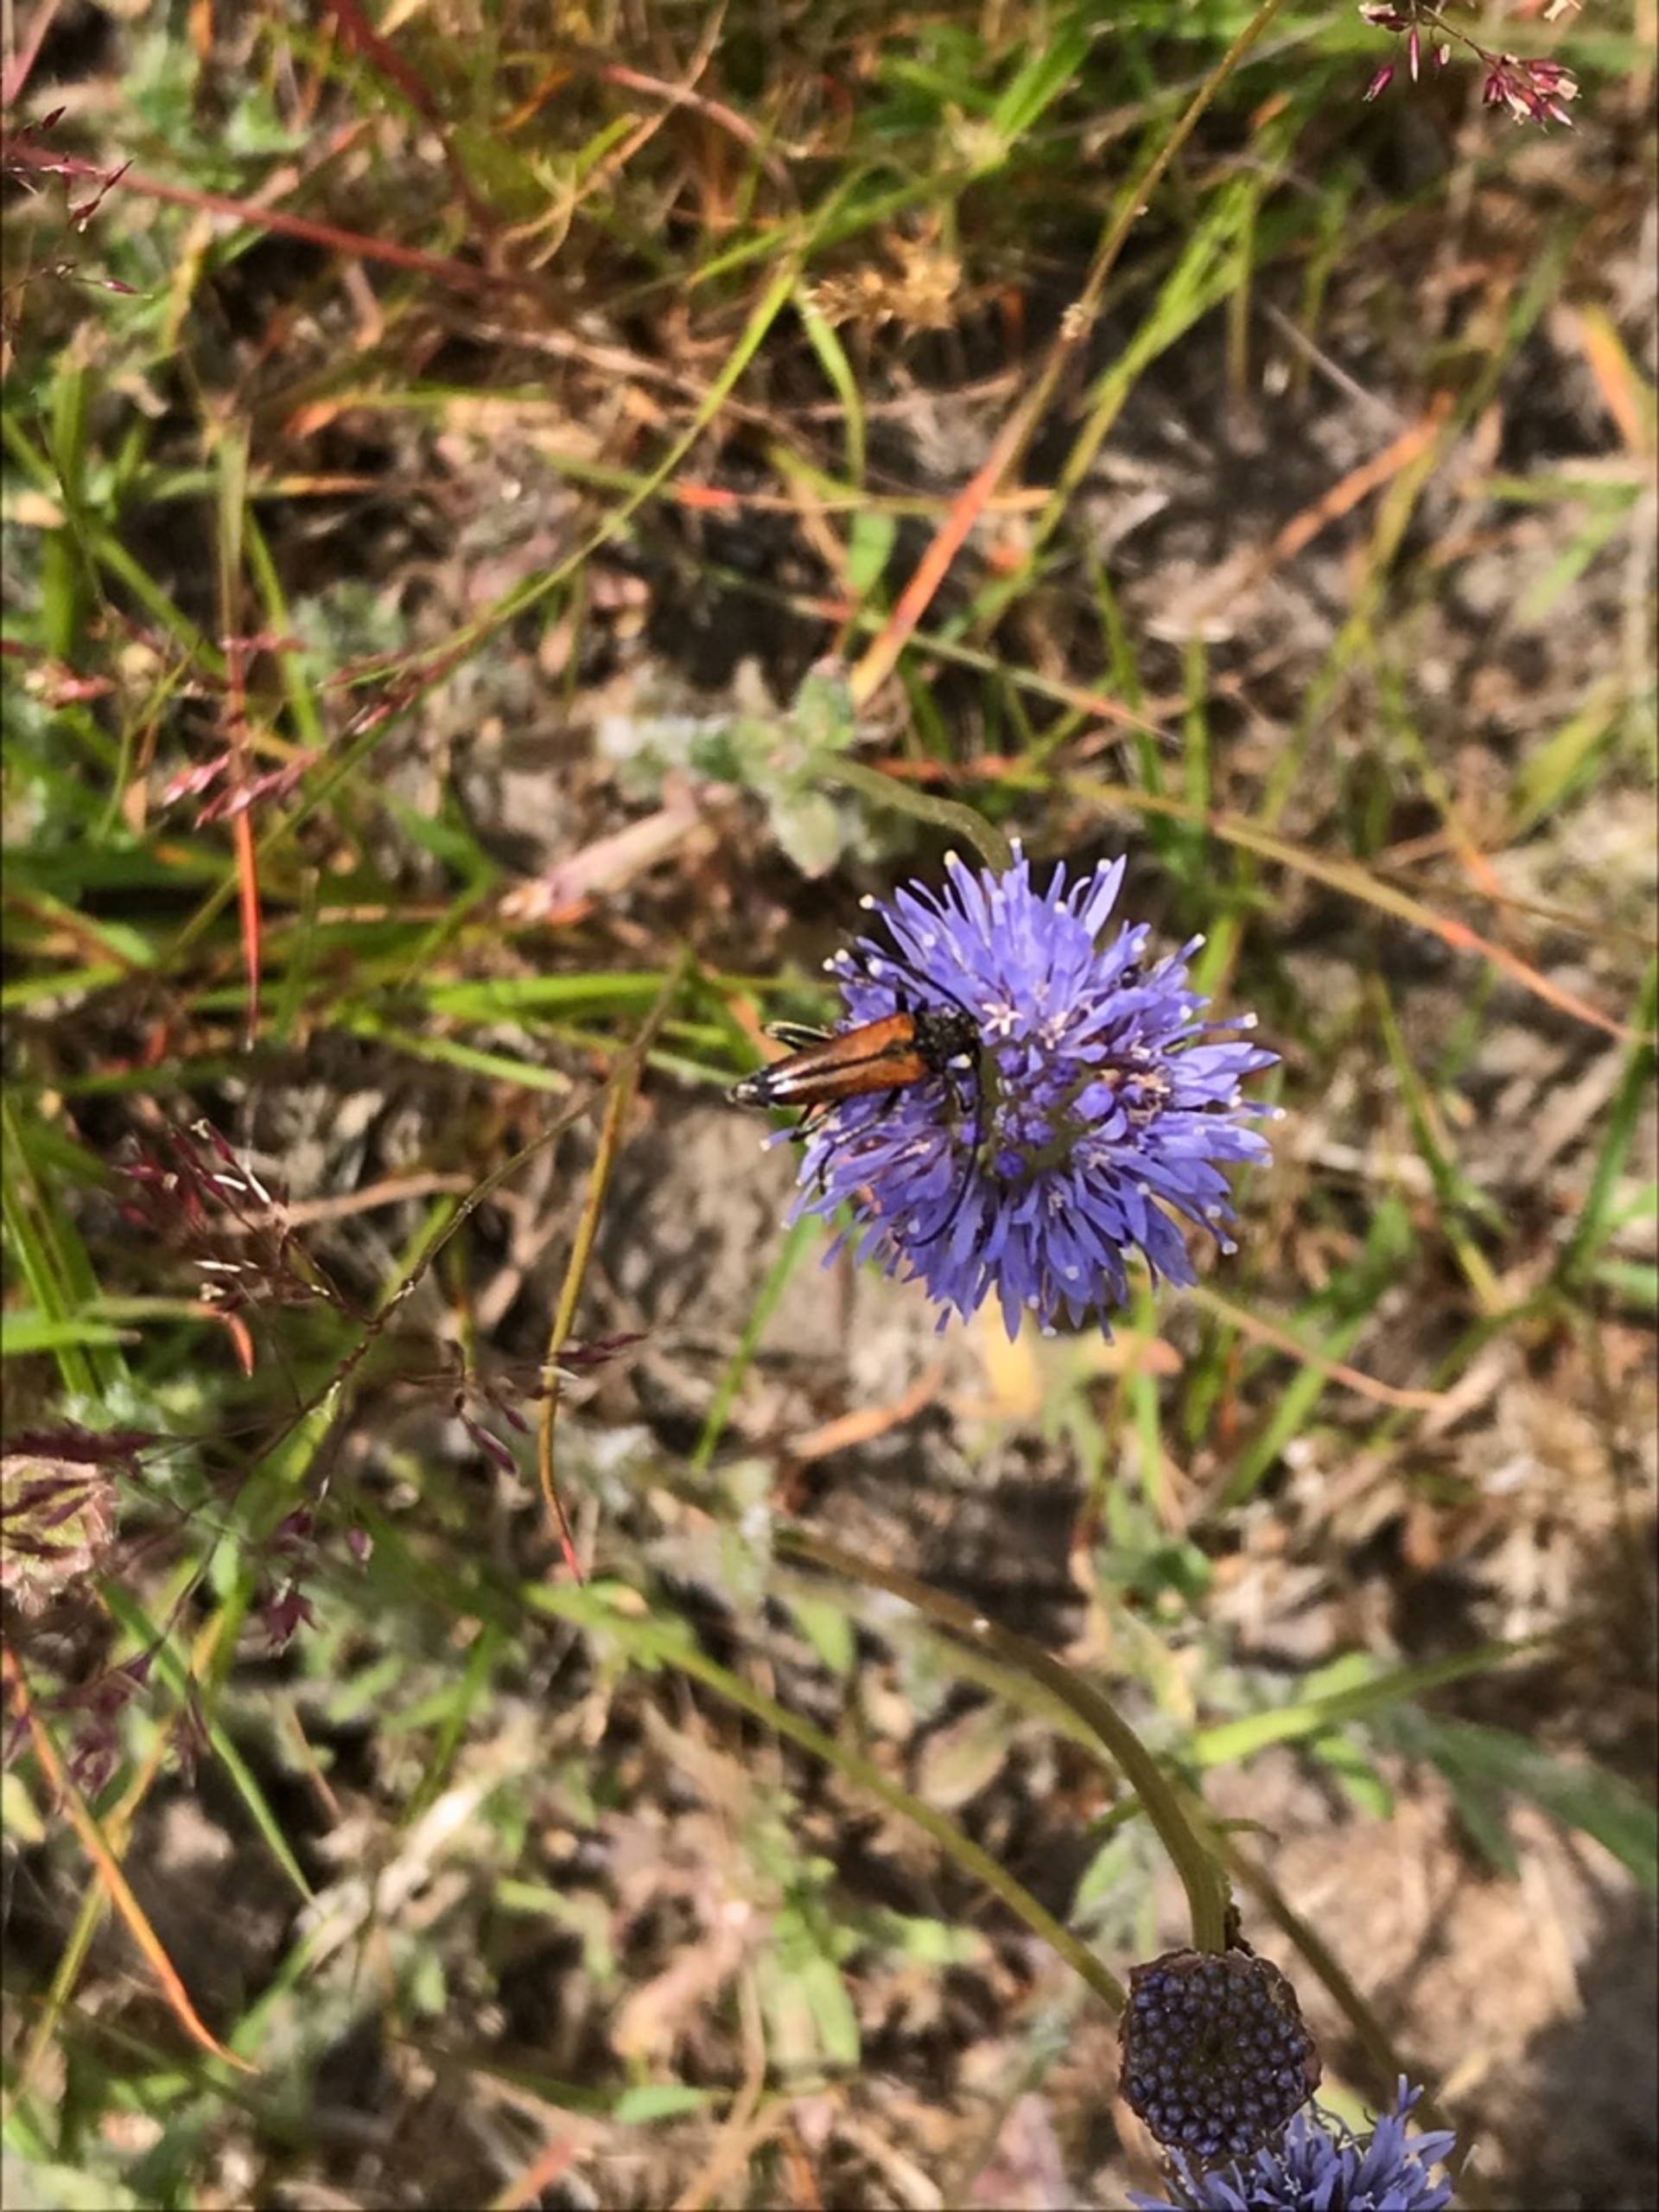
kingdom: Animalia
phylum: Arthropoda
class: Insecta
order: Coleoptera
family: Cerambycidae
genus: Stenurella
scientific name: Stenurella melanura
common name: Sortsømmet blomsterbuk
